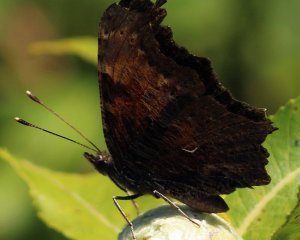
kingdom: Animalia
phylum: Arthropoda
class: Insecta
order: Lepidoptera
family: Nymphalidae
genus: Polygonia
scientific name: Polygonia progne
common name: Gray Comma
